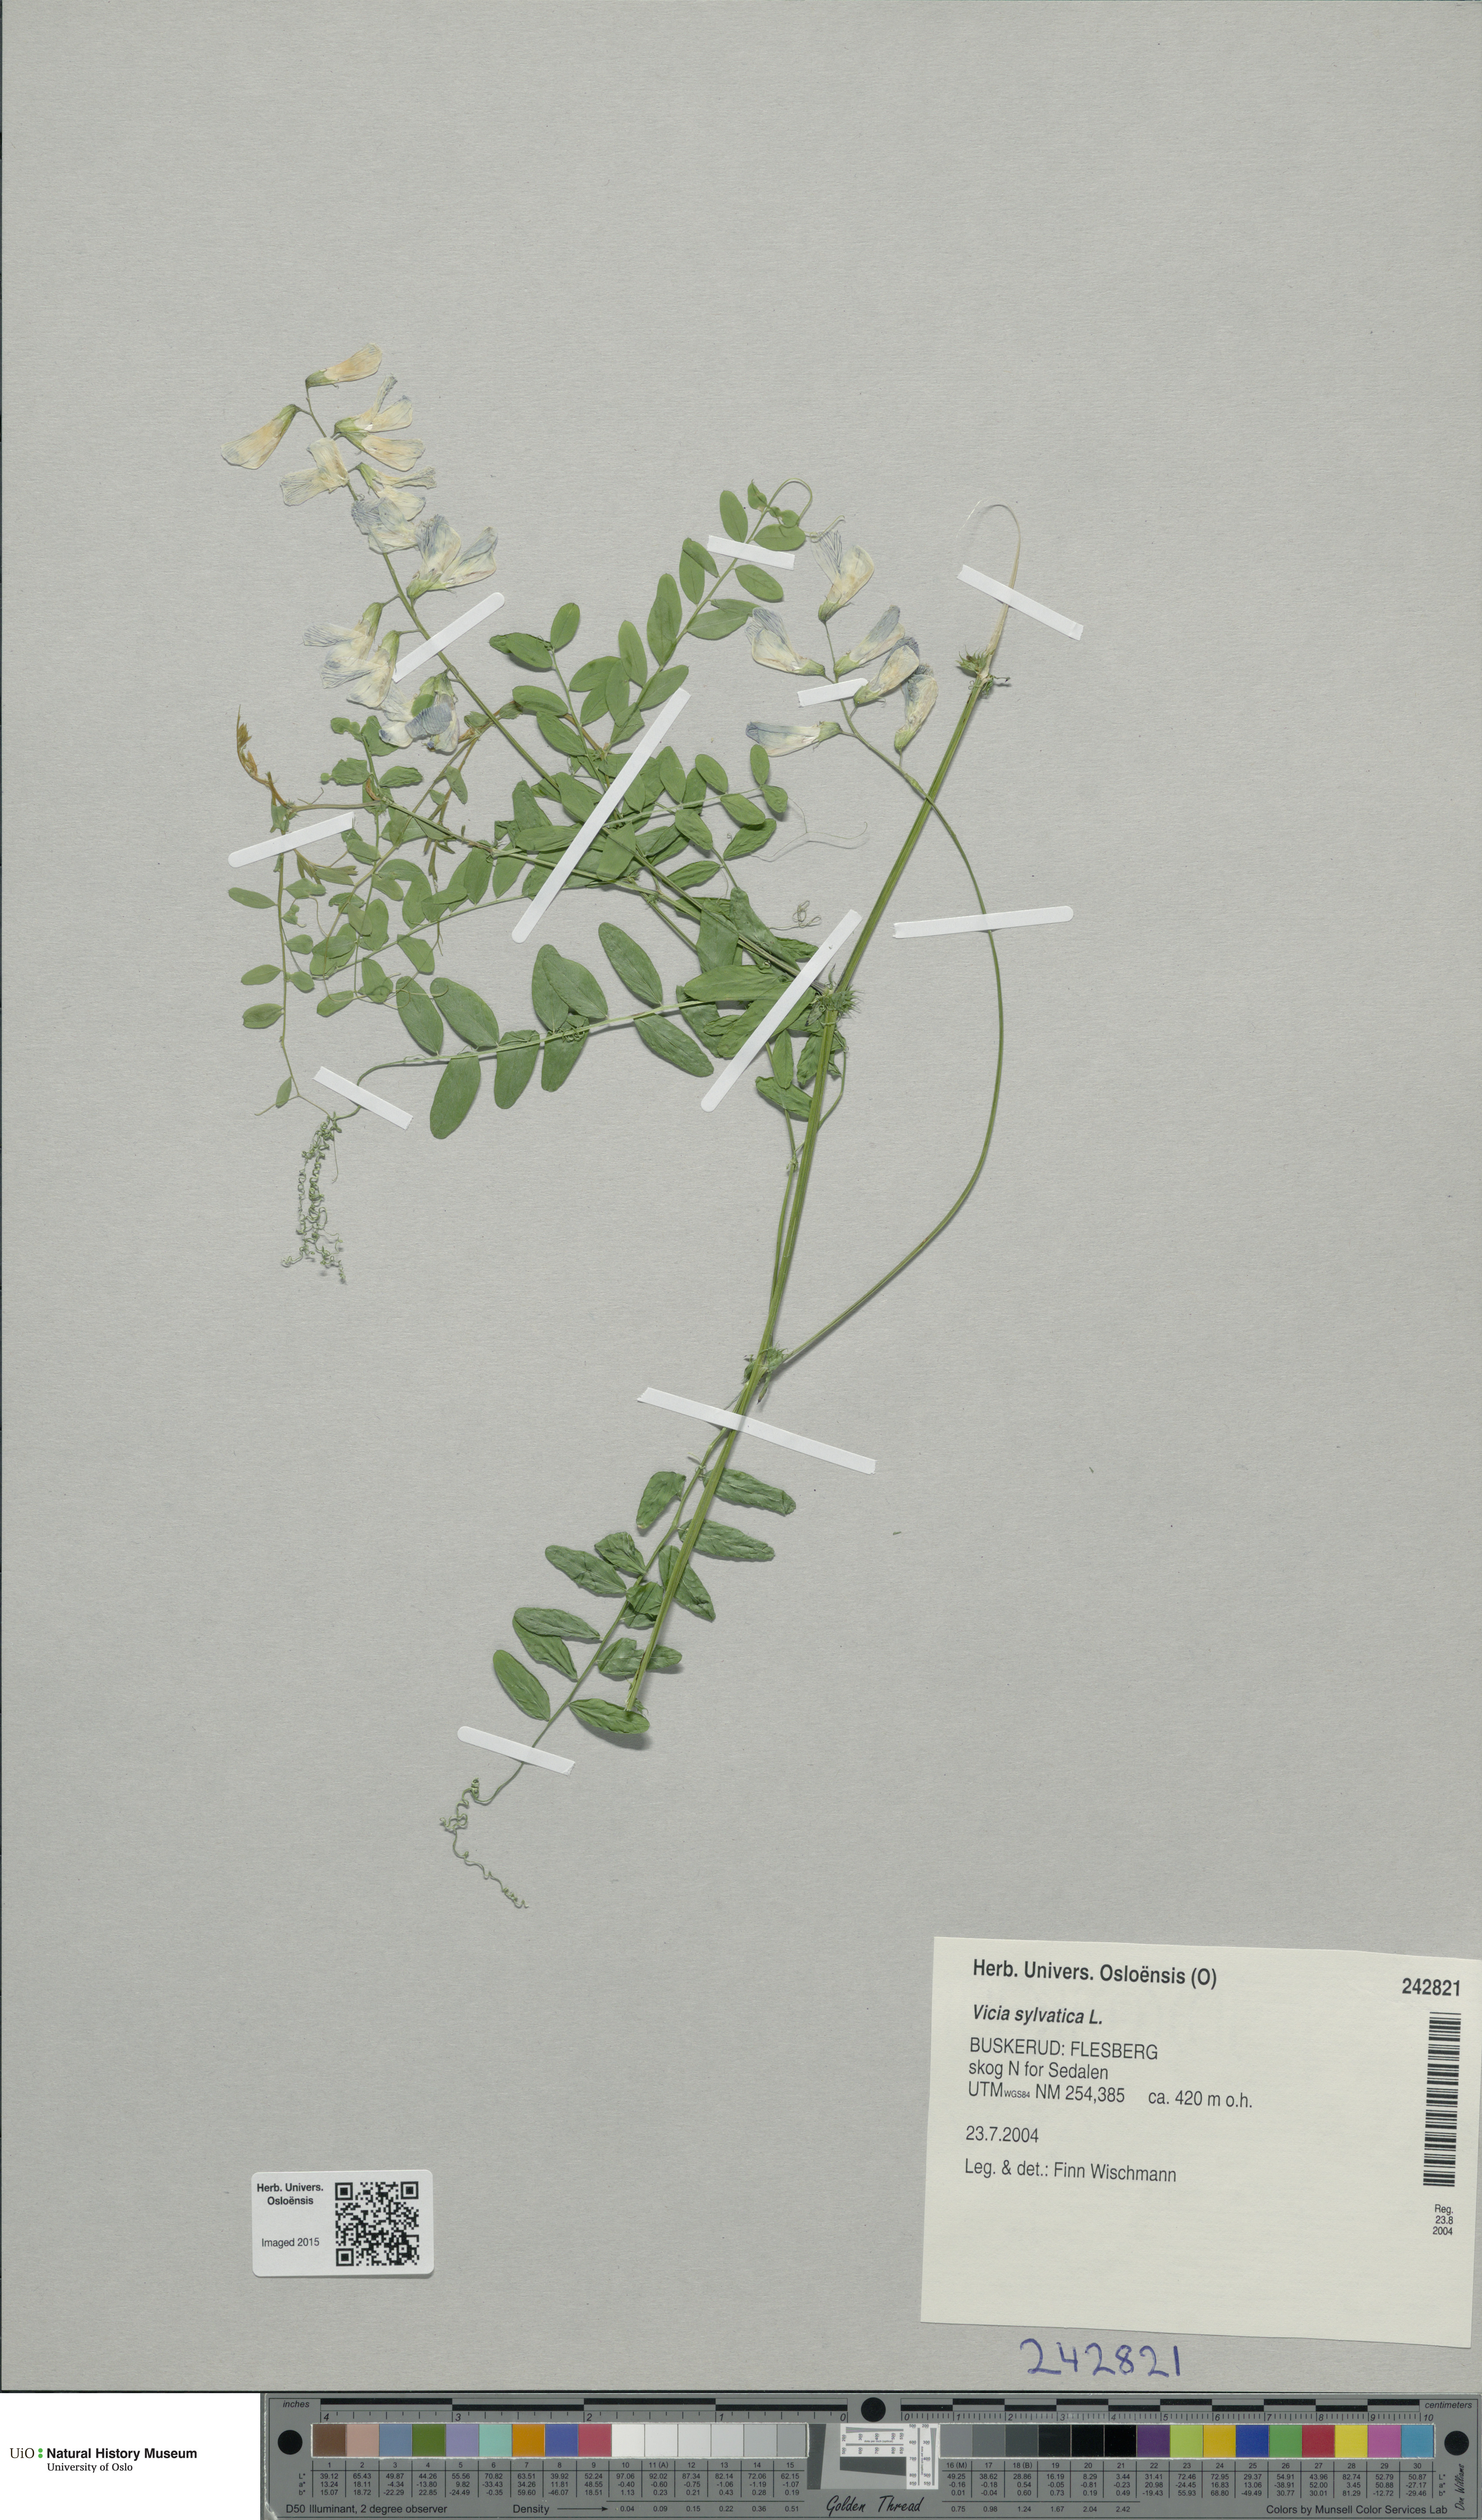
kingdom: Plantae
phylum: Tracheophyta
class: Magnoliopsida
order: Fabales
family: Fabaceae
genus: Vicia
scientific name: Vicia sylvatica
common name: Wood vetch
